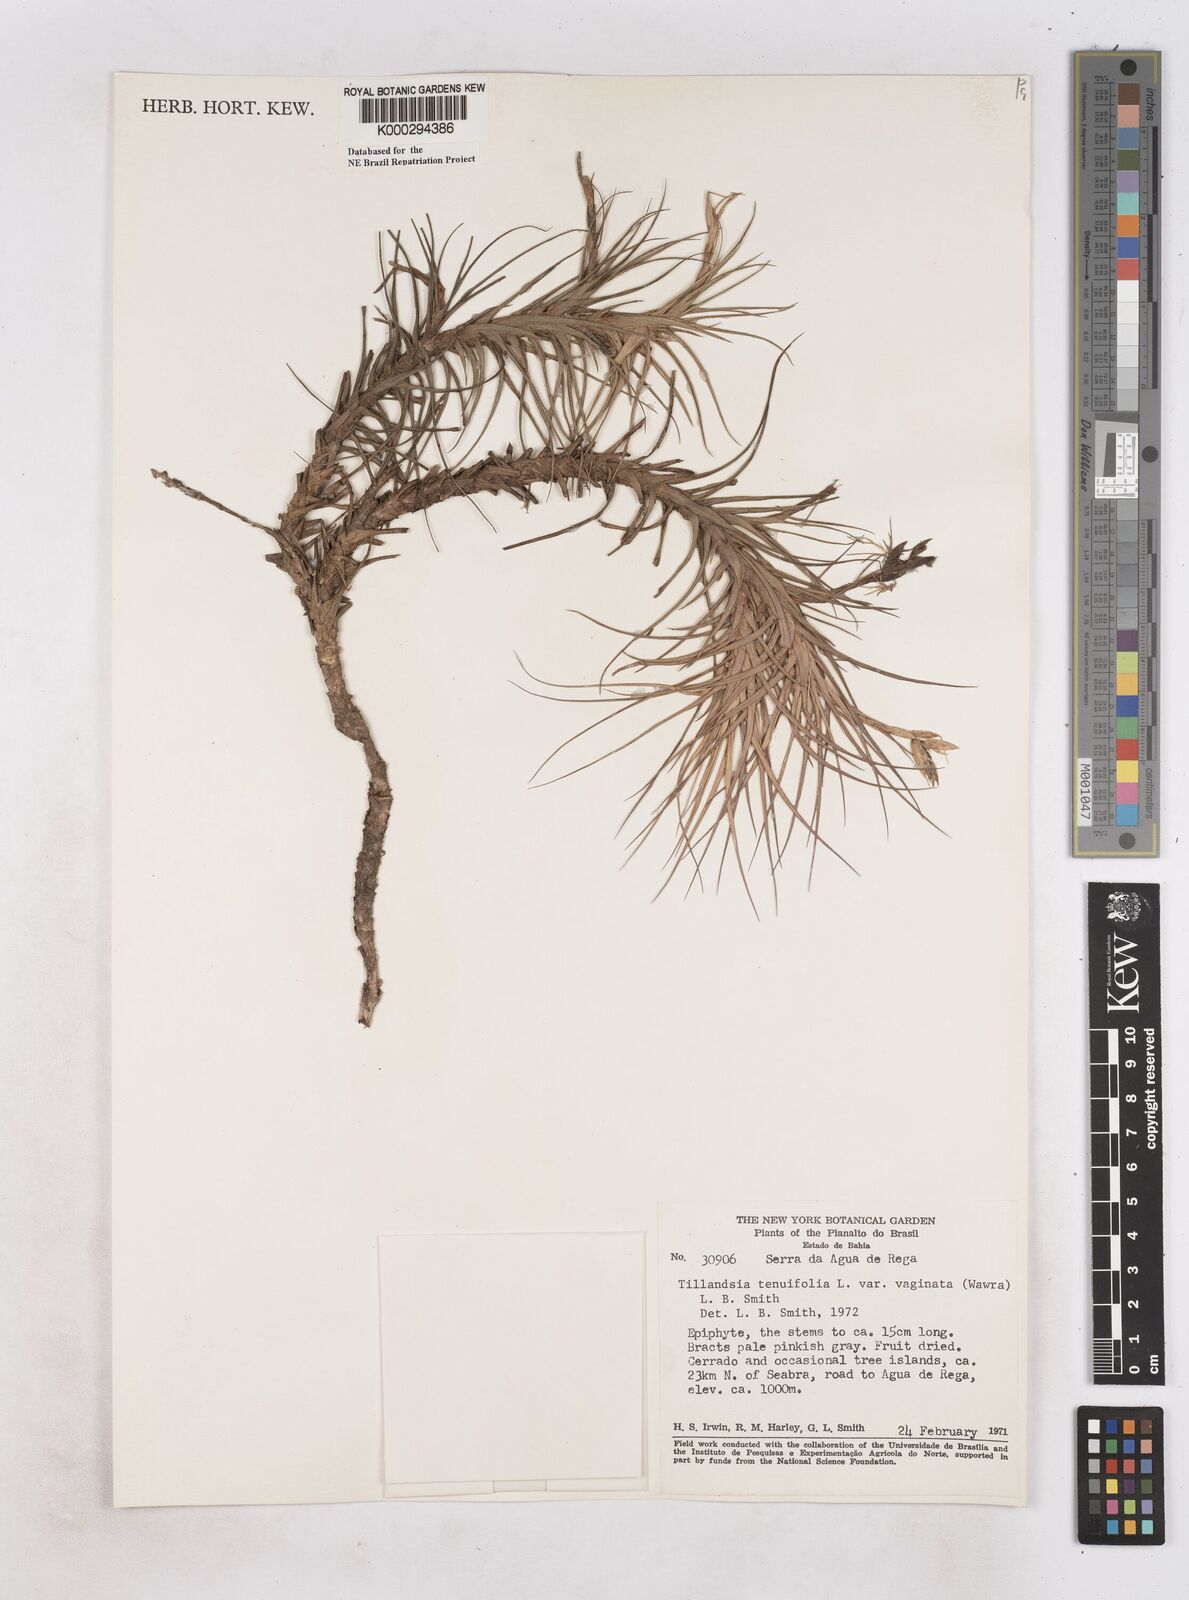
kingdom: Plantae
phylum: Tracheophyta
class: Liliopsida
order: Poales
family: Bromeliaceae
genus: Tillandsia
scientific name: Tillandsia tenuifolia
